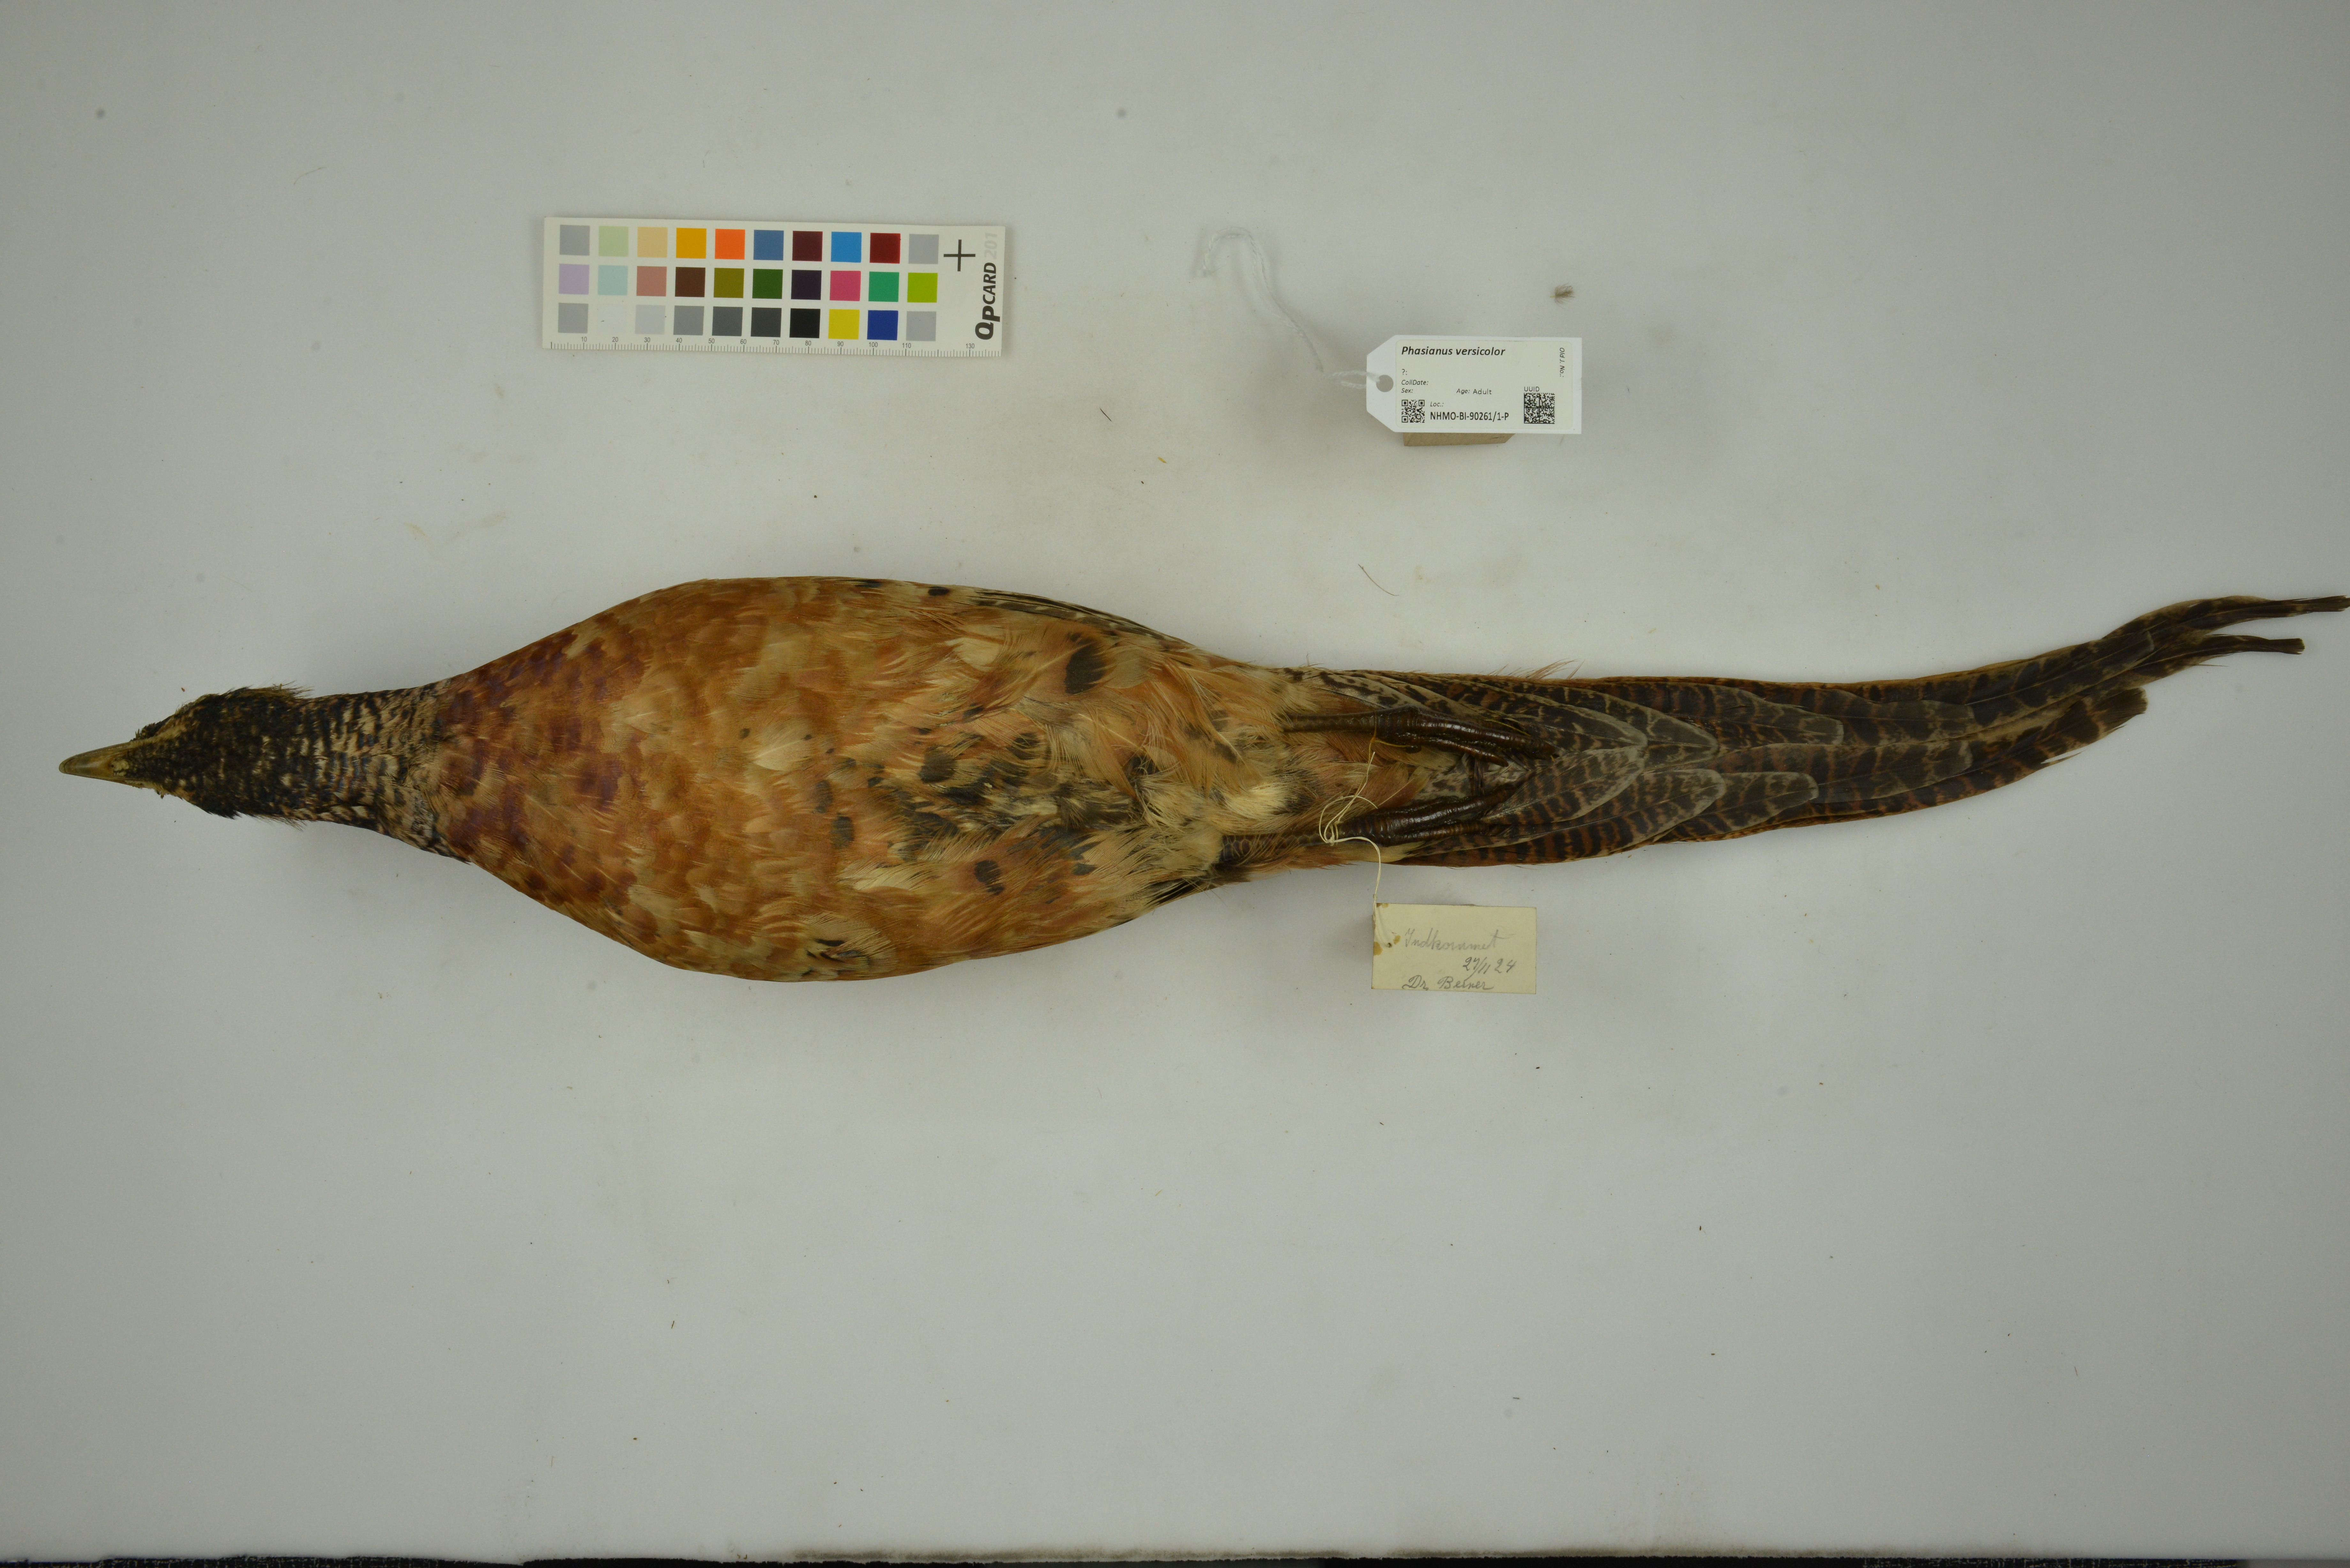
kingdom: Animalia
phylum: Chordata
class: Aves
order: Galliformes
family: Phasianidae
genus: Phasianus
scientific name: Phasianus versicolor
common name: Green pheasant
